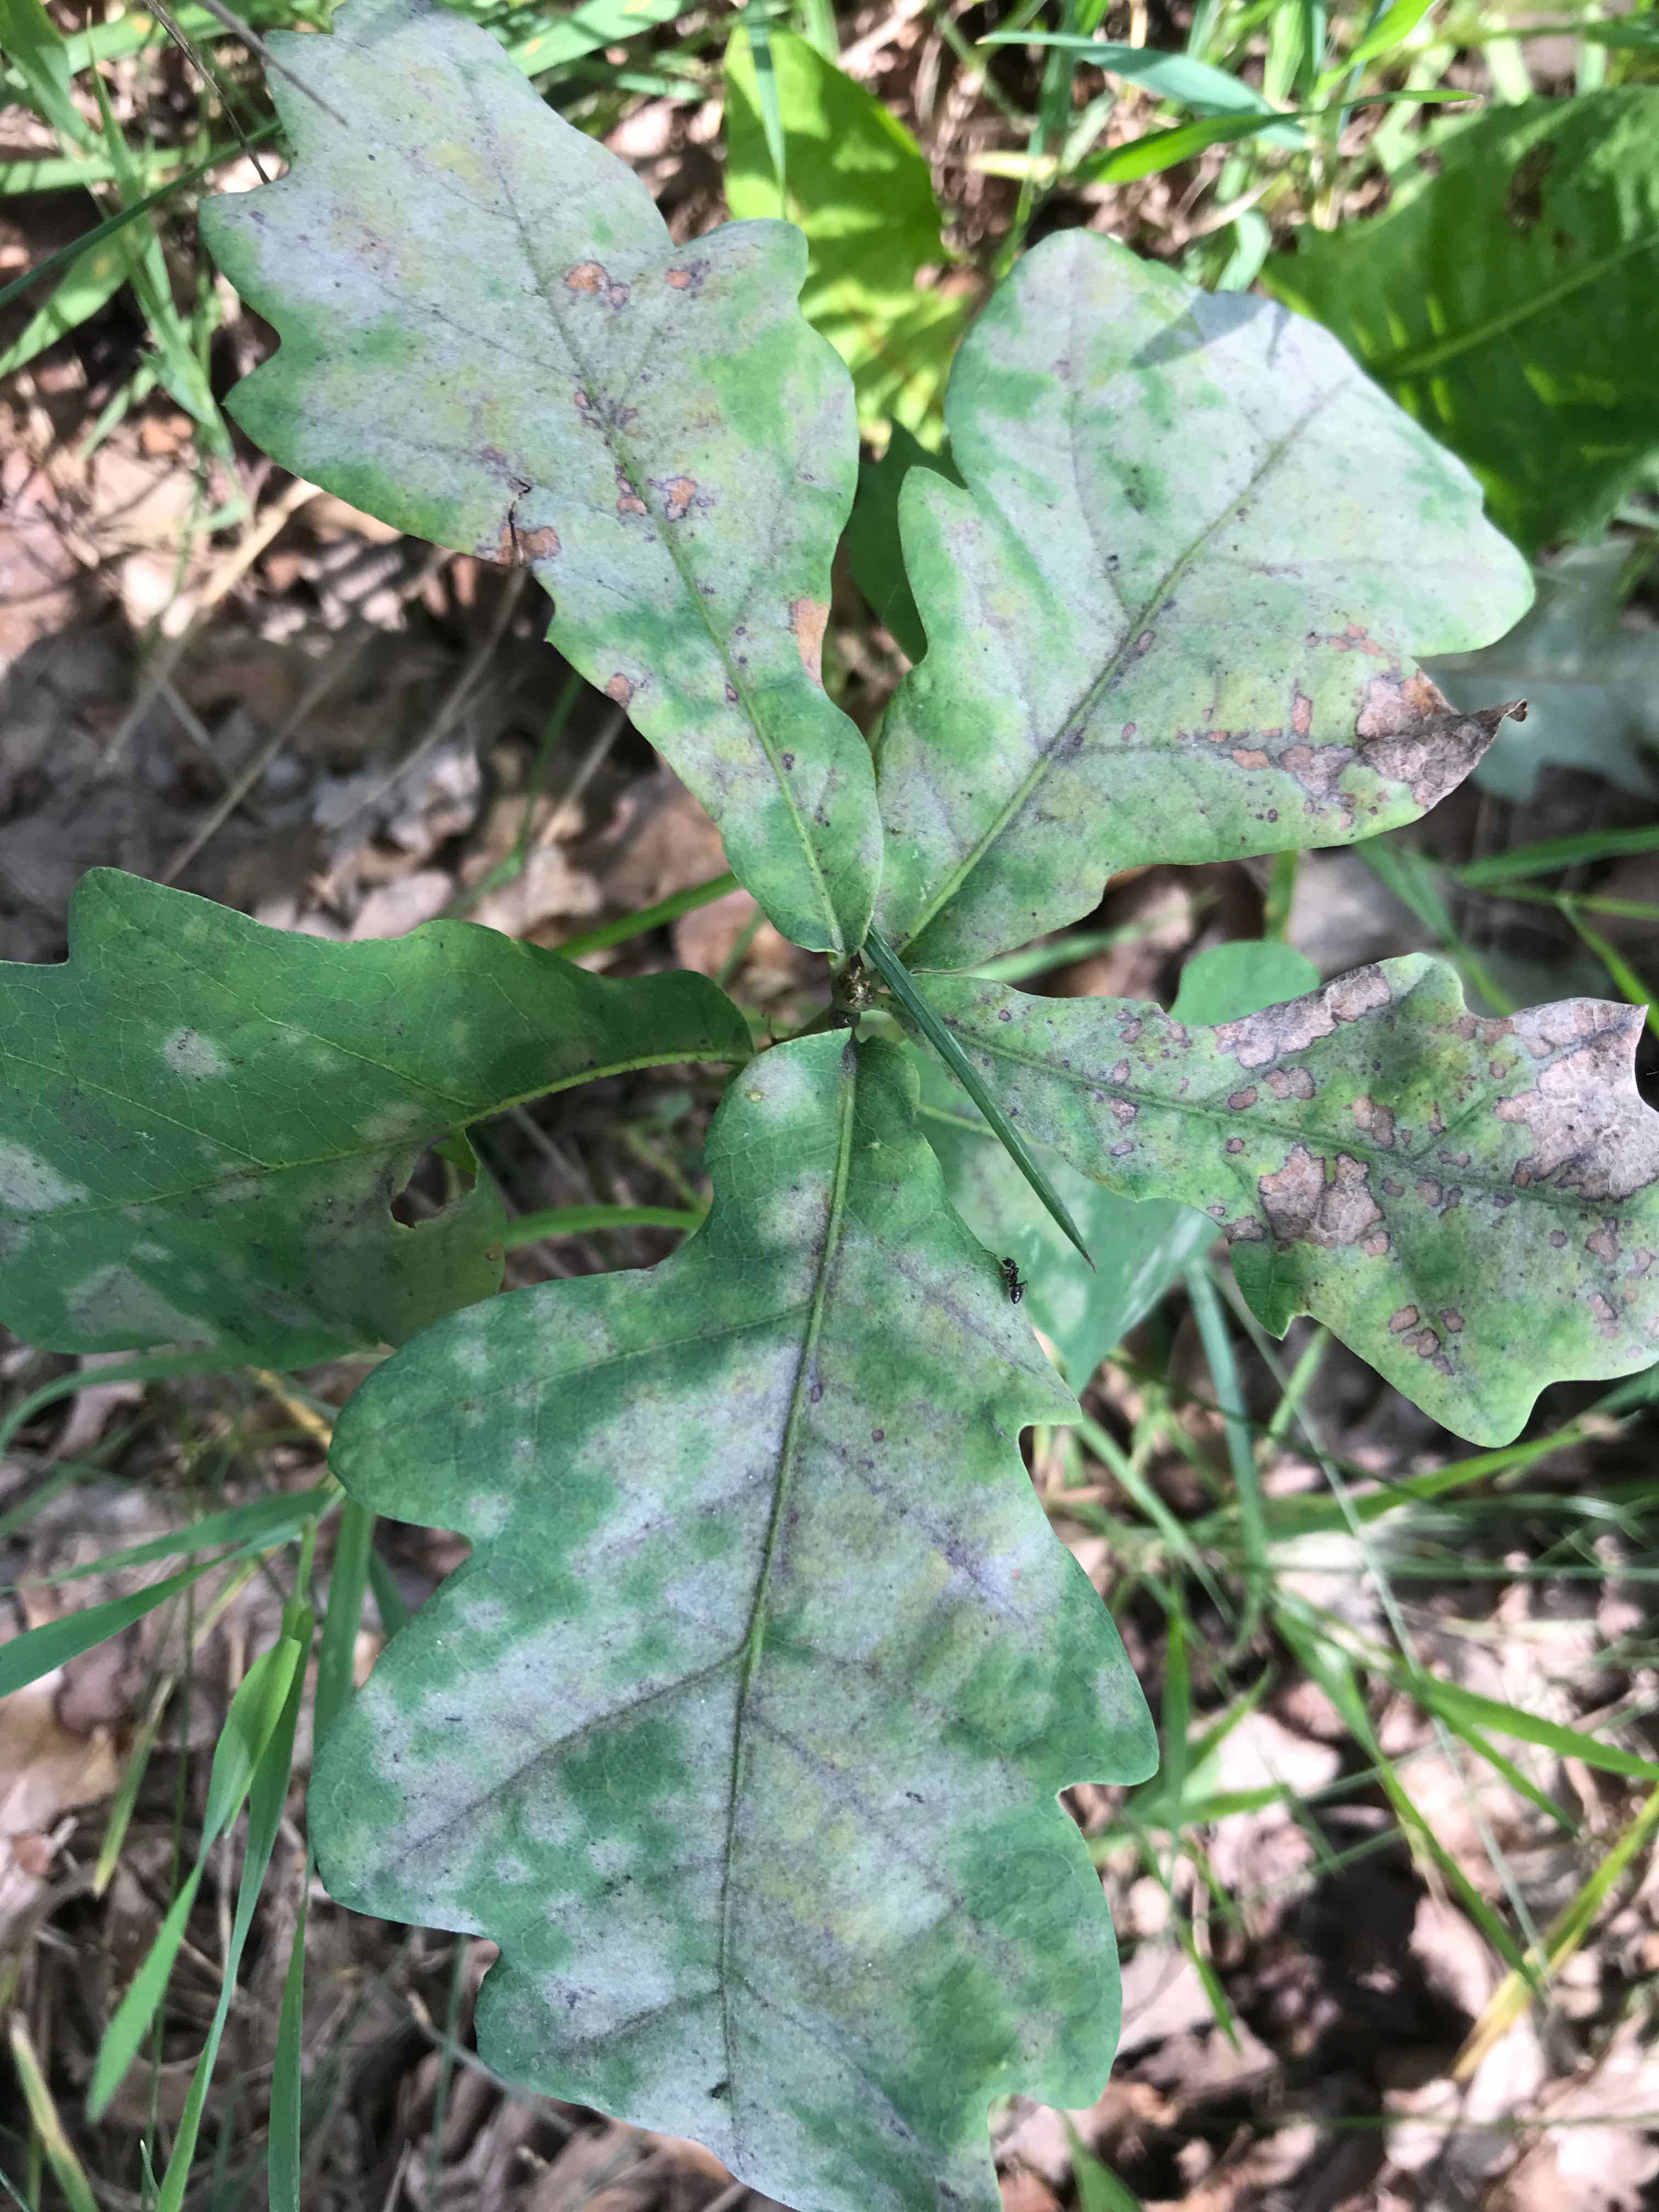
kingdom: Fungi
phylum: Ascomycota
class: Leotiomycetes
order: Helotiales
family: Erysiphaceae
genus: Erysiphe
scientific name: Erysiphe alphitoides
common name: ege-meldug
